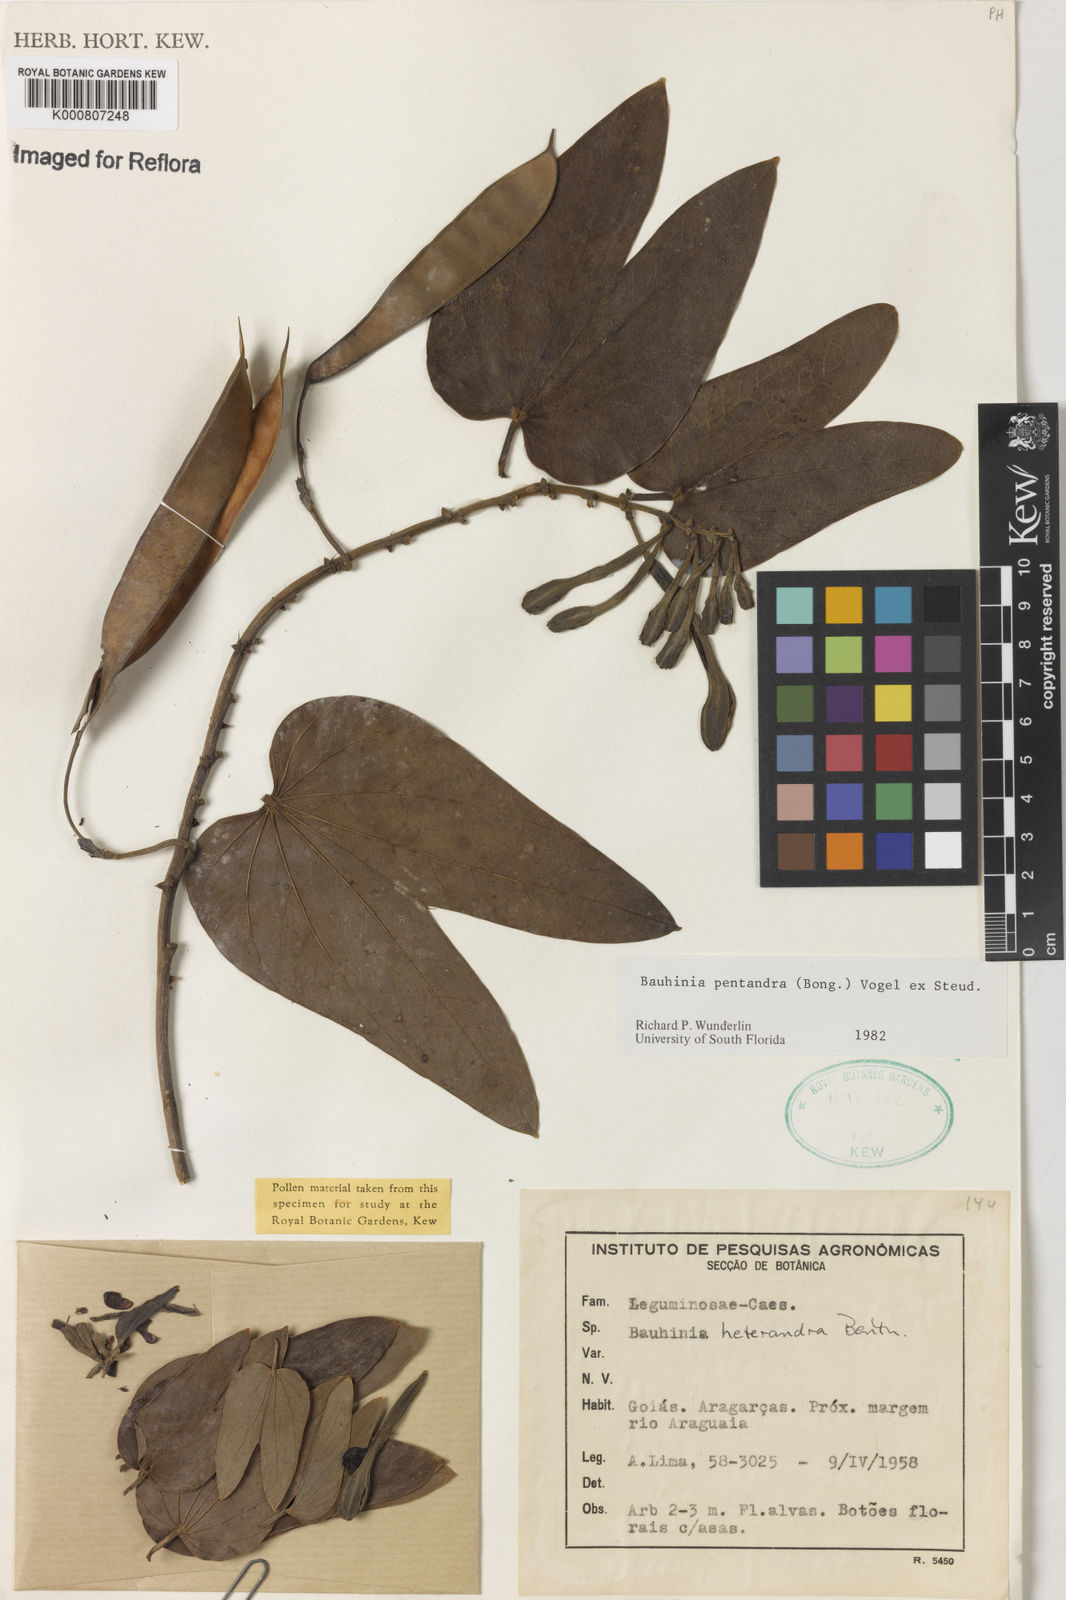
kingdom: Plantae
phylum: Tracheophyta
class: Magnoliopsida
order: Fabales
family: Fabaceae
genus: Bauhinia
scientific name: Bauhinia
